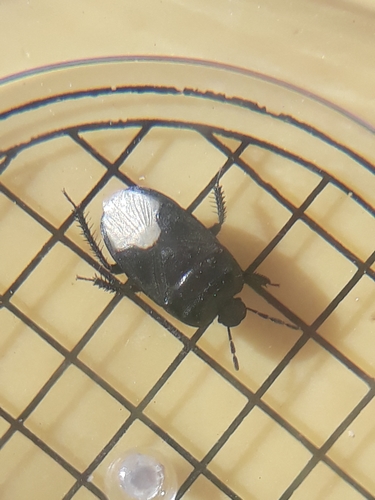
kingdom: Animalia
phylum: Arthropoda
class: Insecta
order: Hemiptera
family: Cydnidae
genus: Cydnus
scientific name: Cydnus aterrimus
